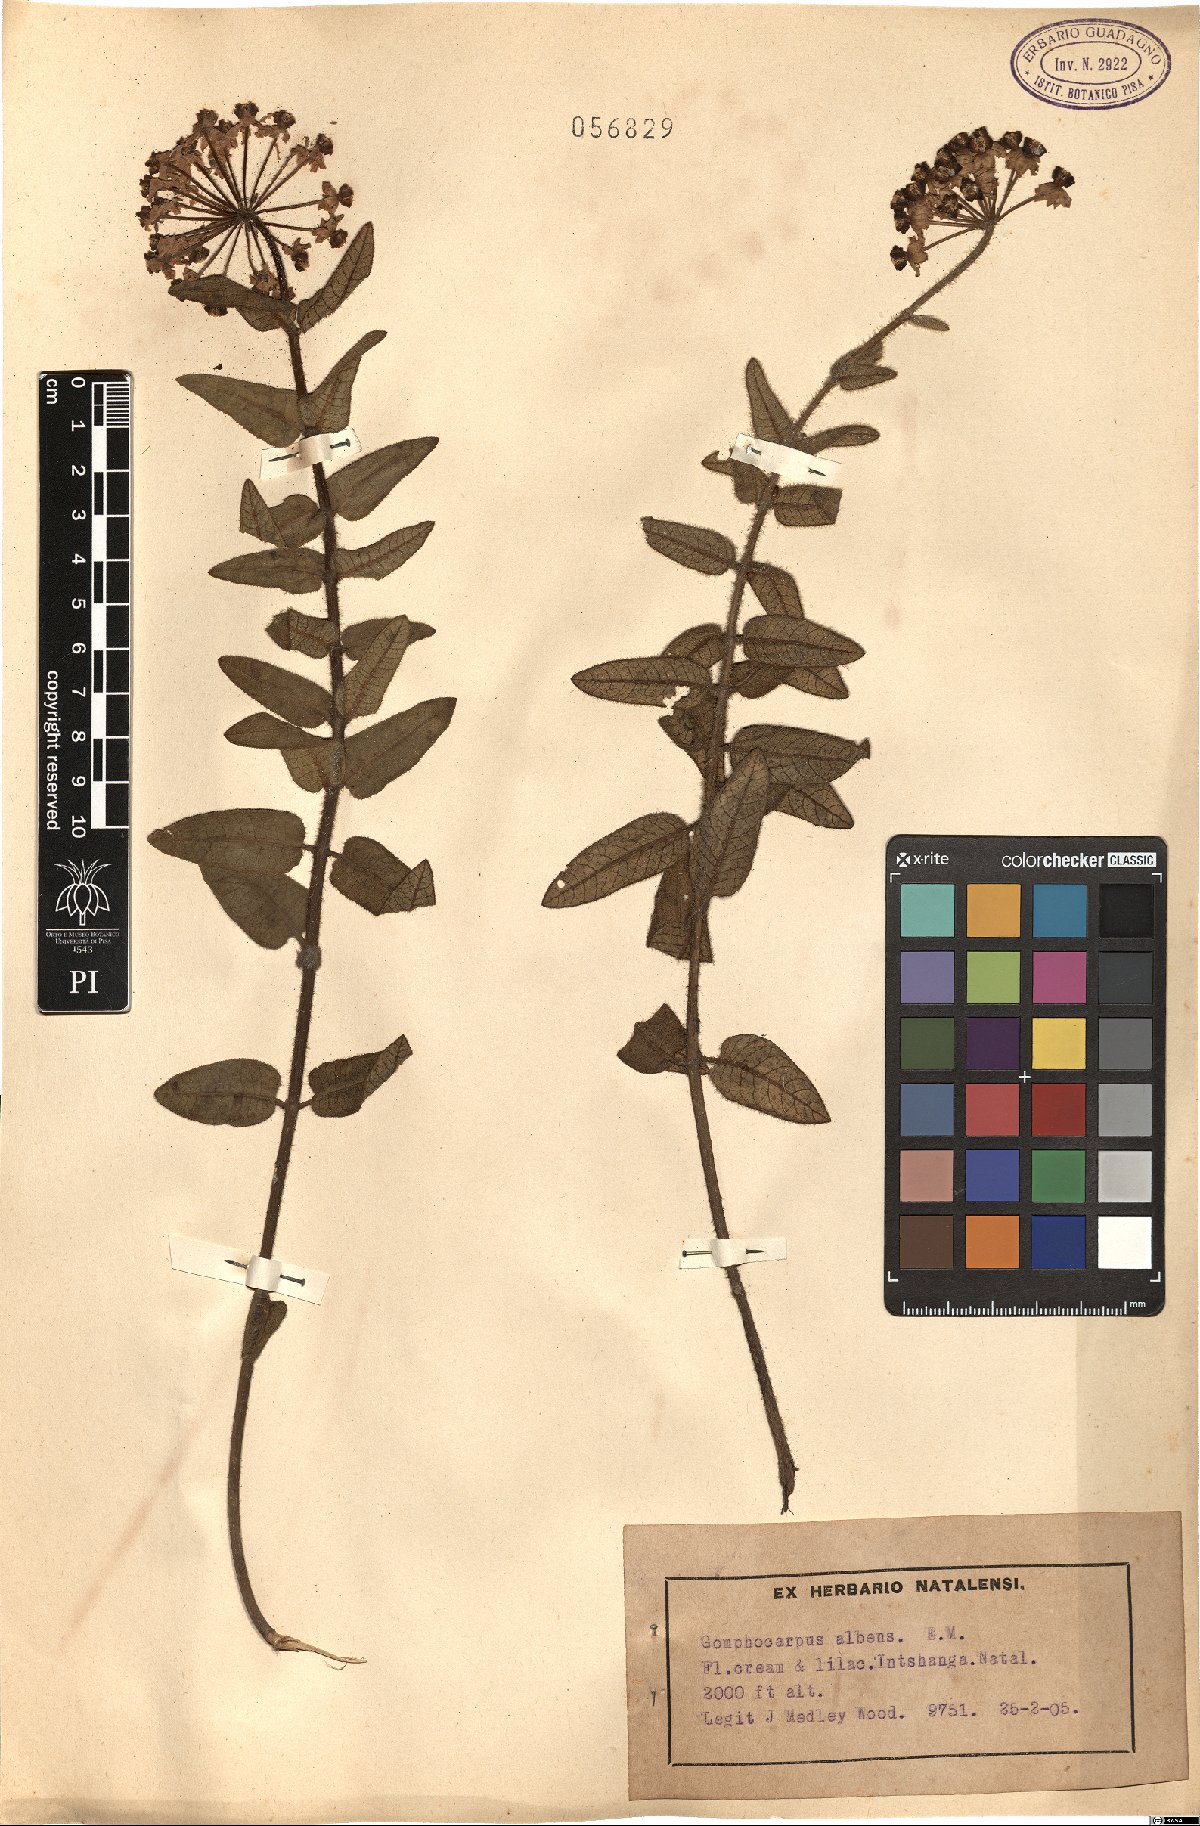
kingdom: Plantae
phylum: Tracheophyta
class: Magnoliopsida
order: Gentianales
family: Apocynaceae
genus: Asclepias
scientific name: Asclepias albens
